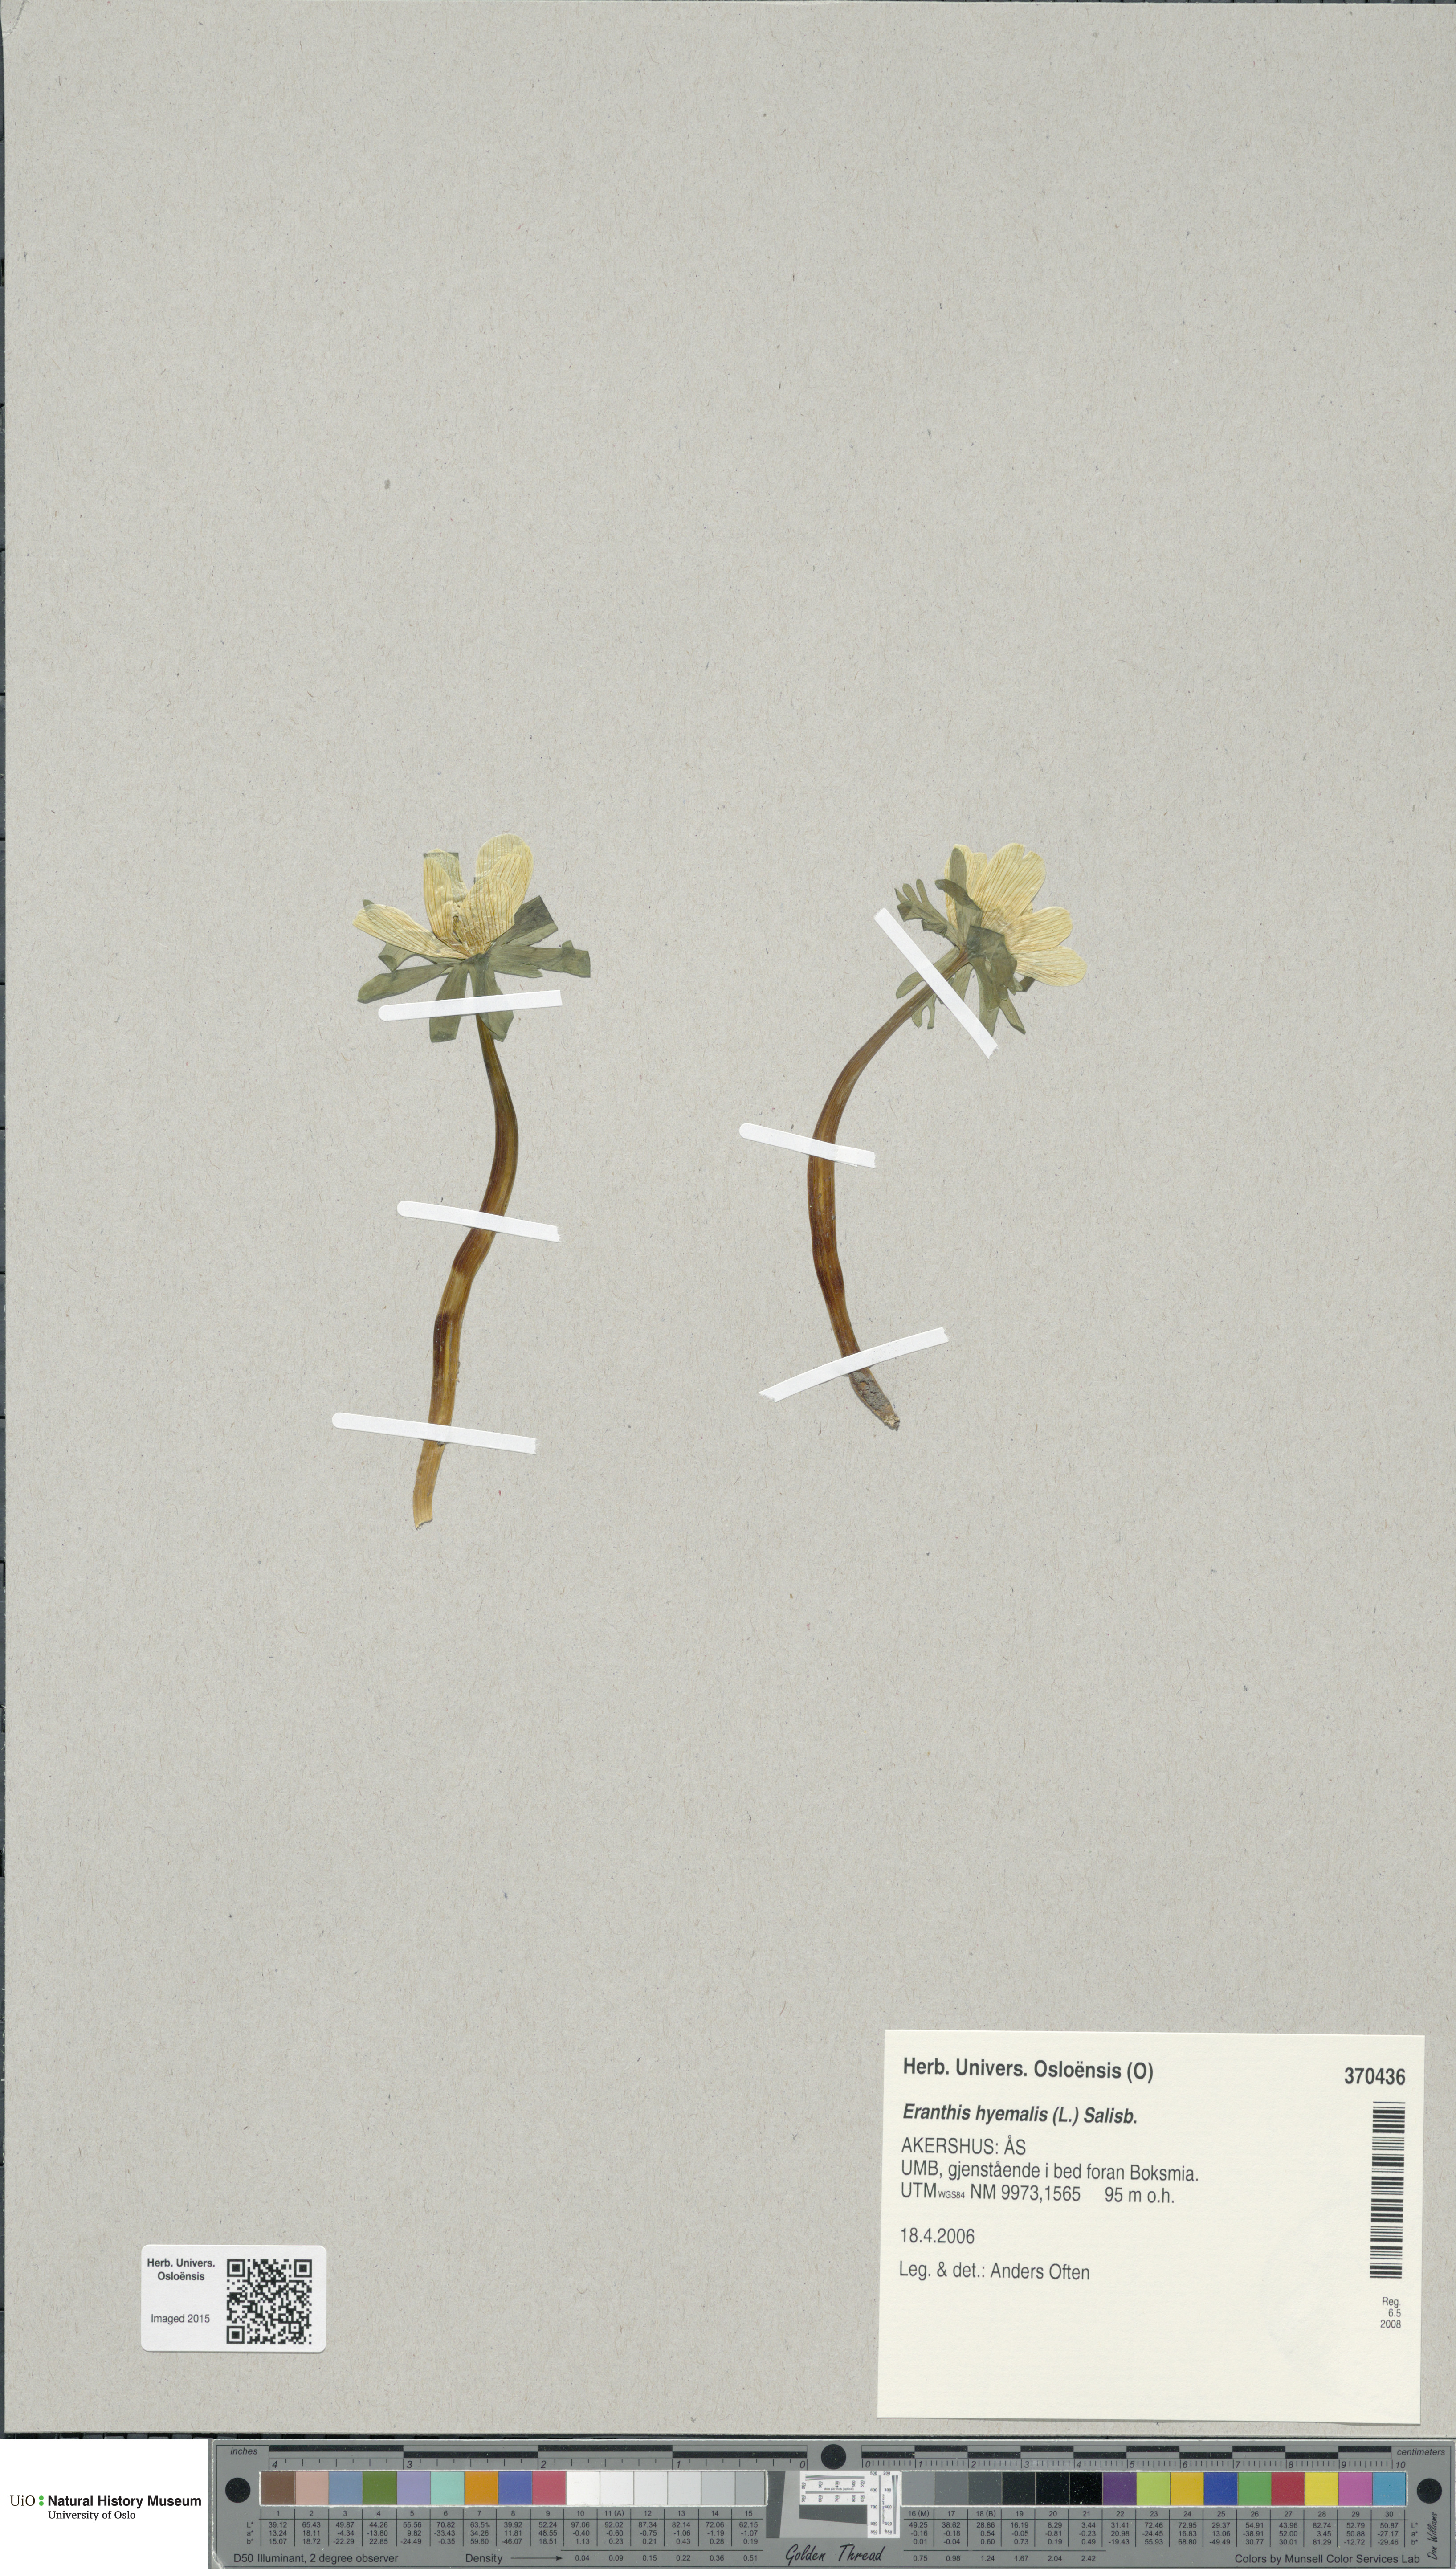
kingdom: Plantae
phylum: Tracheophyta
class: Magnoliopsida
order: Ranunculales
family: Ranunculaceae
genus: Eranthis
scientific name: Eranthis hyemalis
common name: Winter aconite
